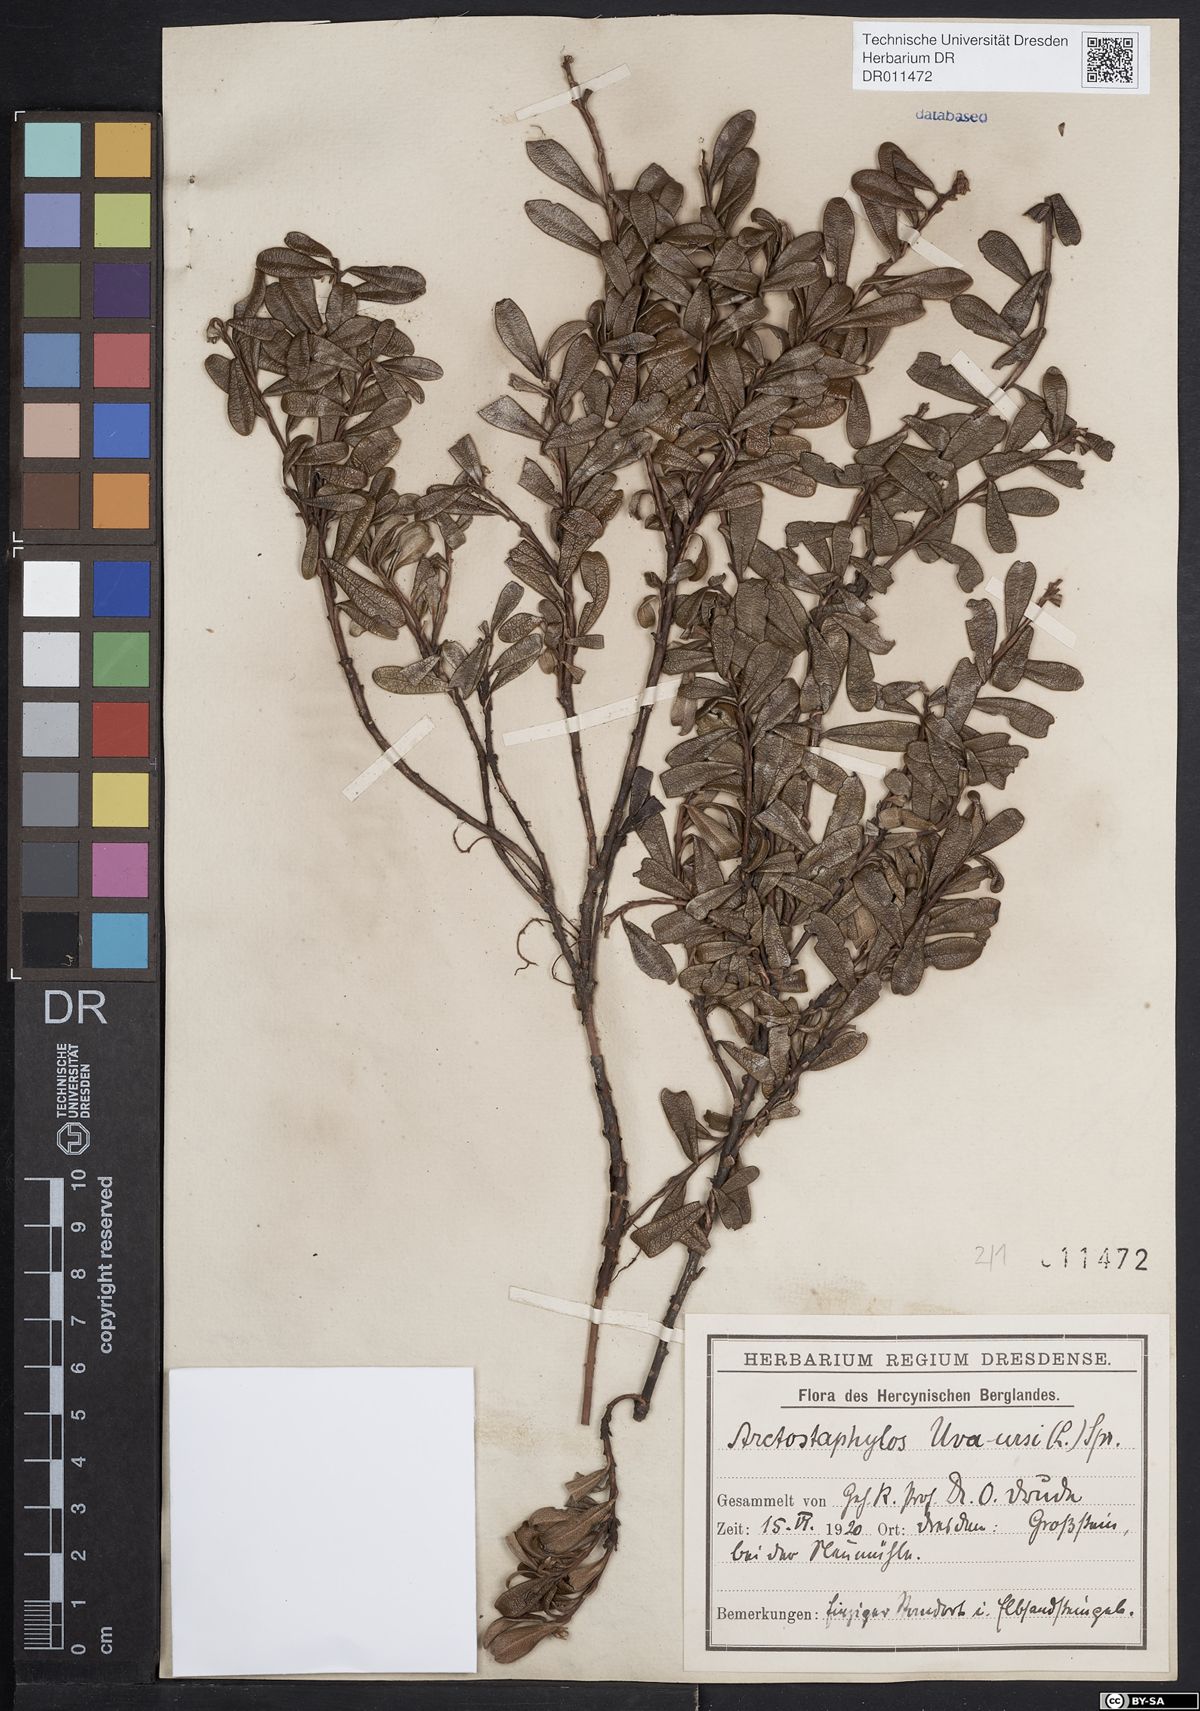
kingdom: Plantae
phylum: Tracheophyta
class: Magnoliopsida
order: Ericales
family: Ericaceae
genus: Arctostaphylos
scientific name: Arctostaphylos uva-ursi
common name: Bearberry
